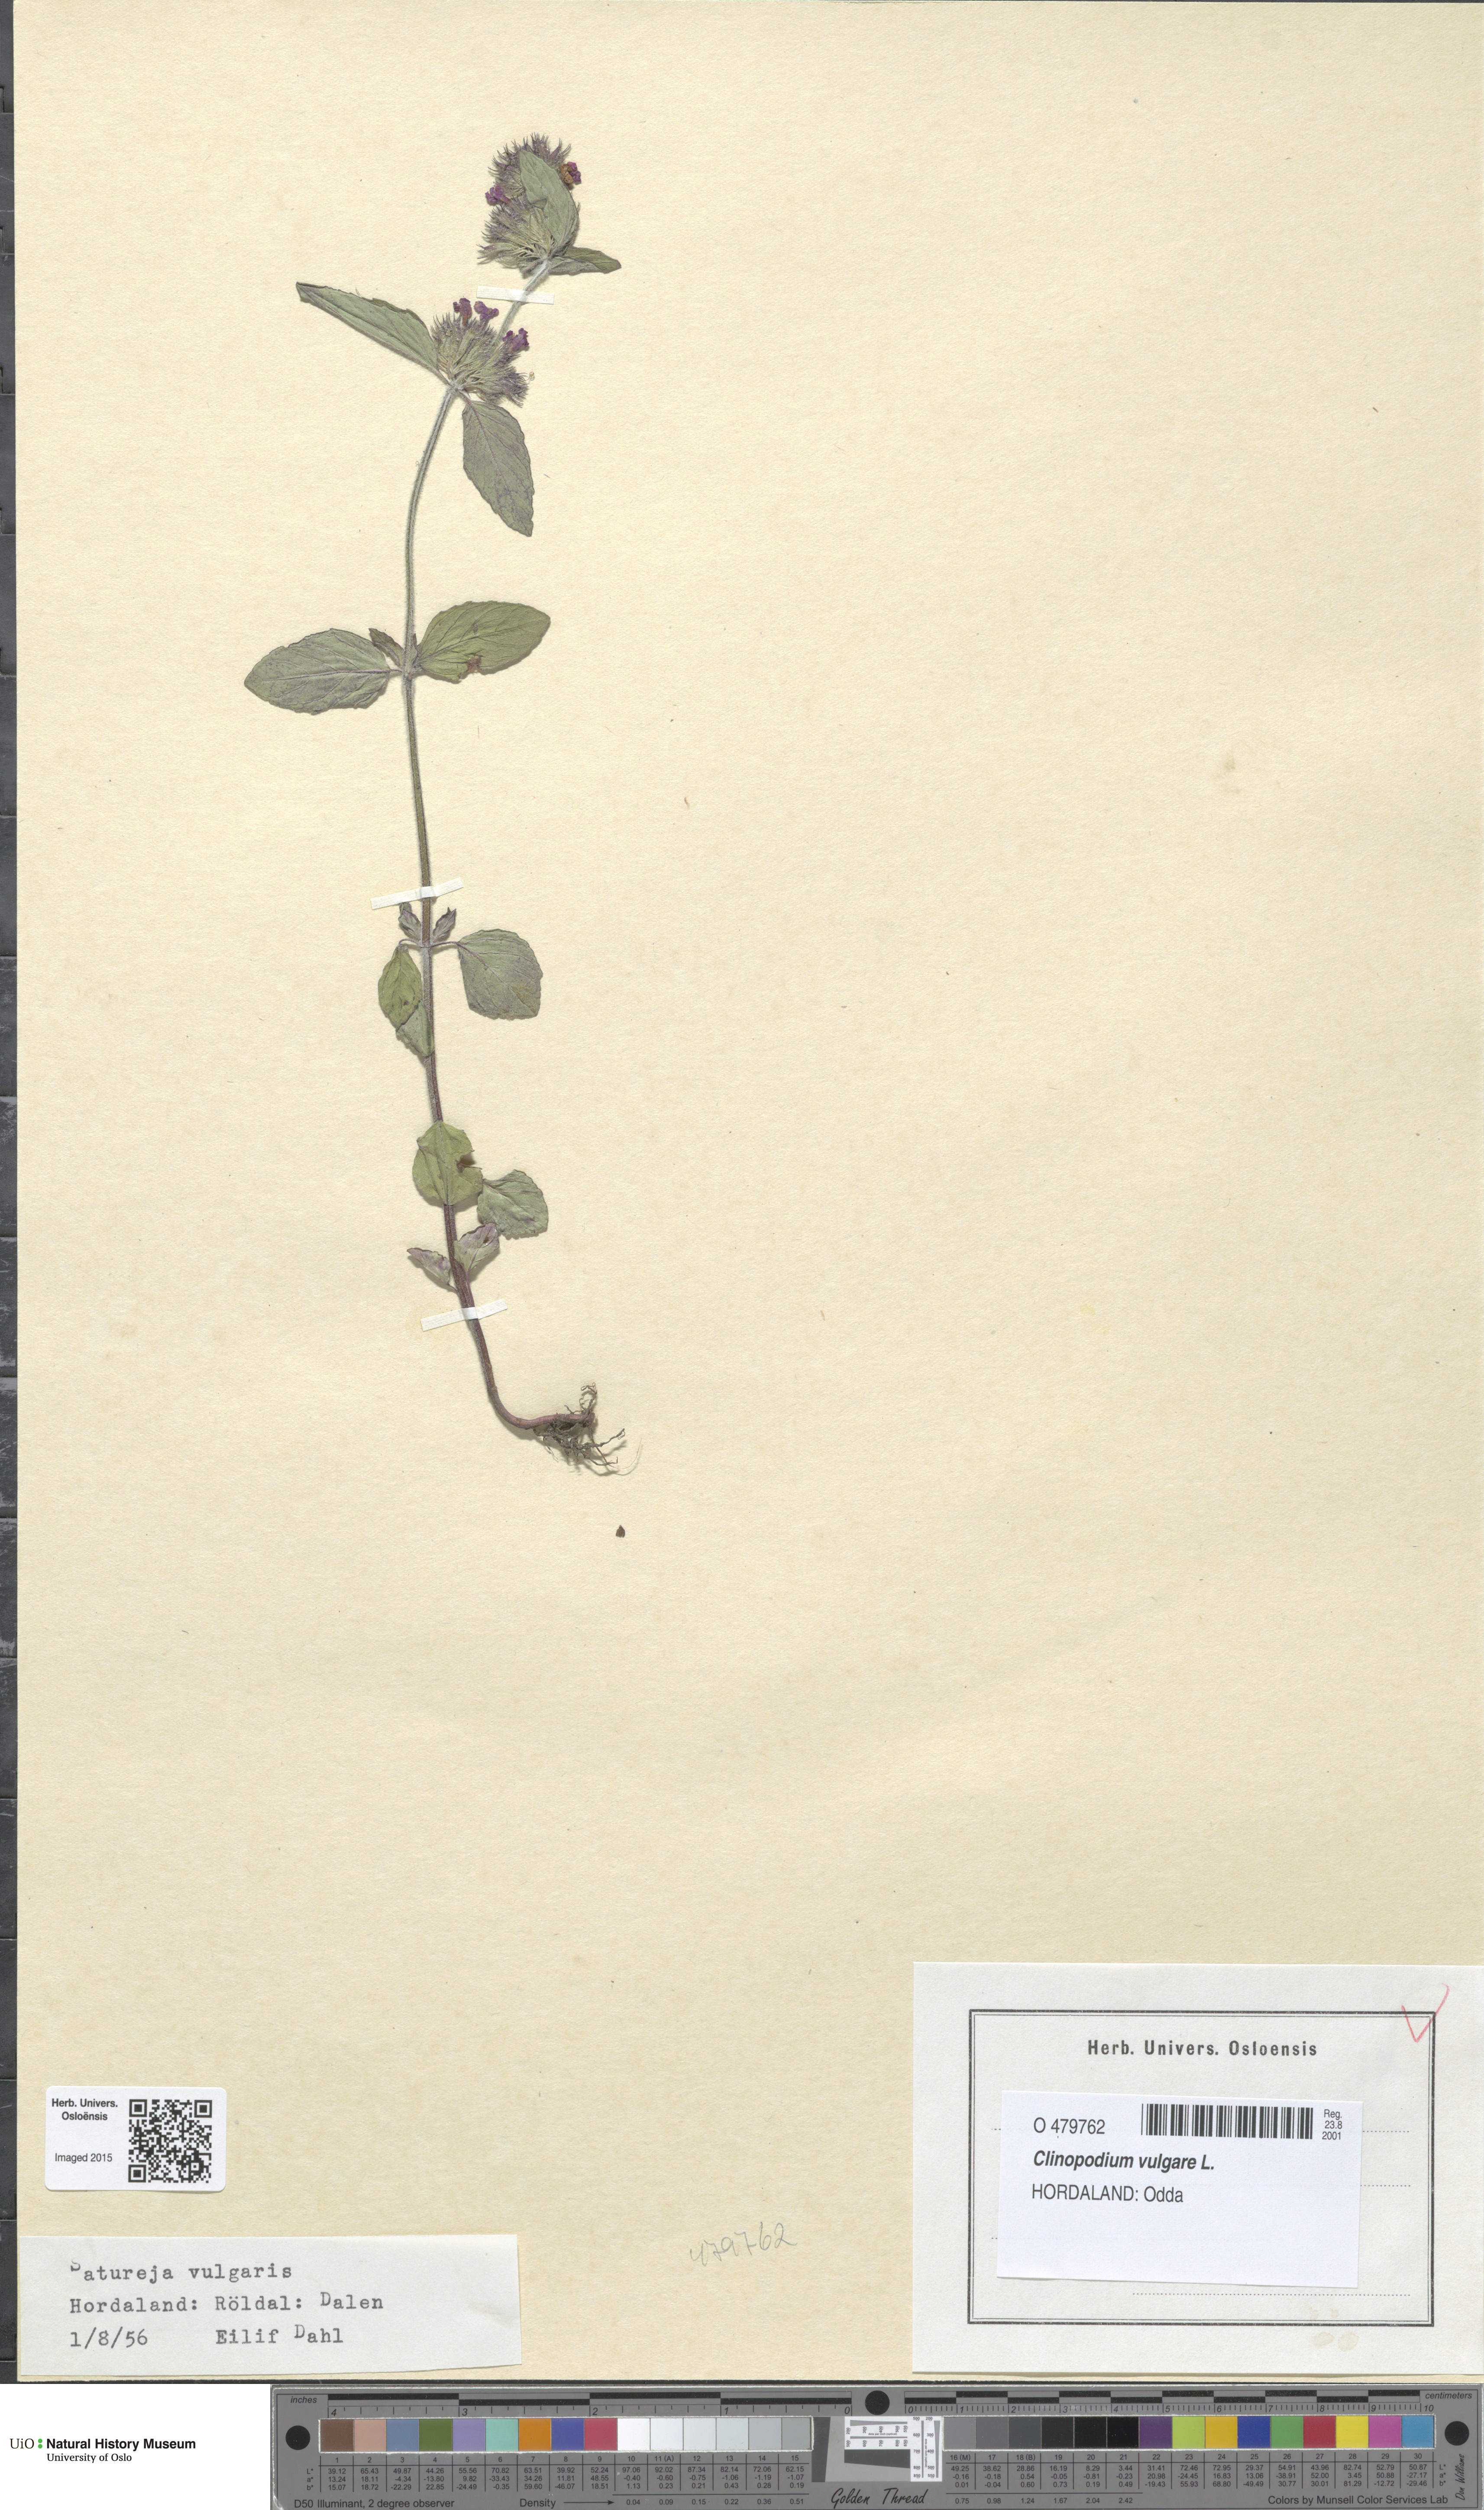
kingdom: Plantae
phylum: Tracheophyta
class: Magnoliopsida
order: Lamiales
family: Lamiaceae
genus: Clinopodium
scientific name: Clinopodium vulgare
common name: Wild basil
